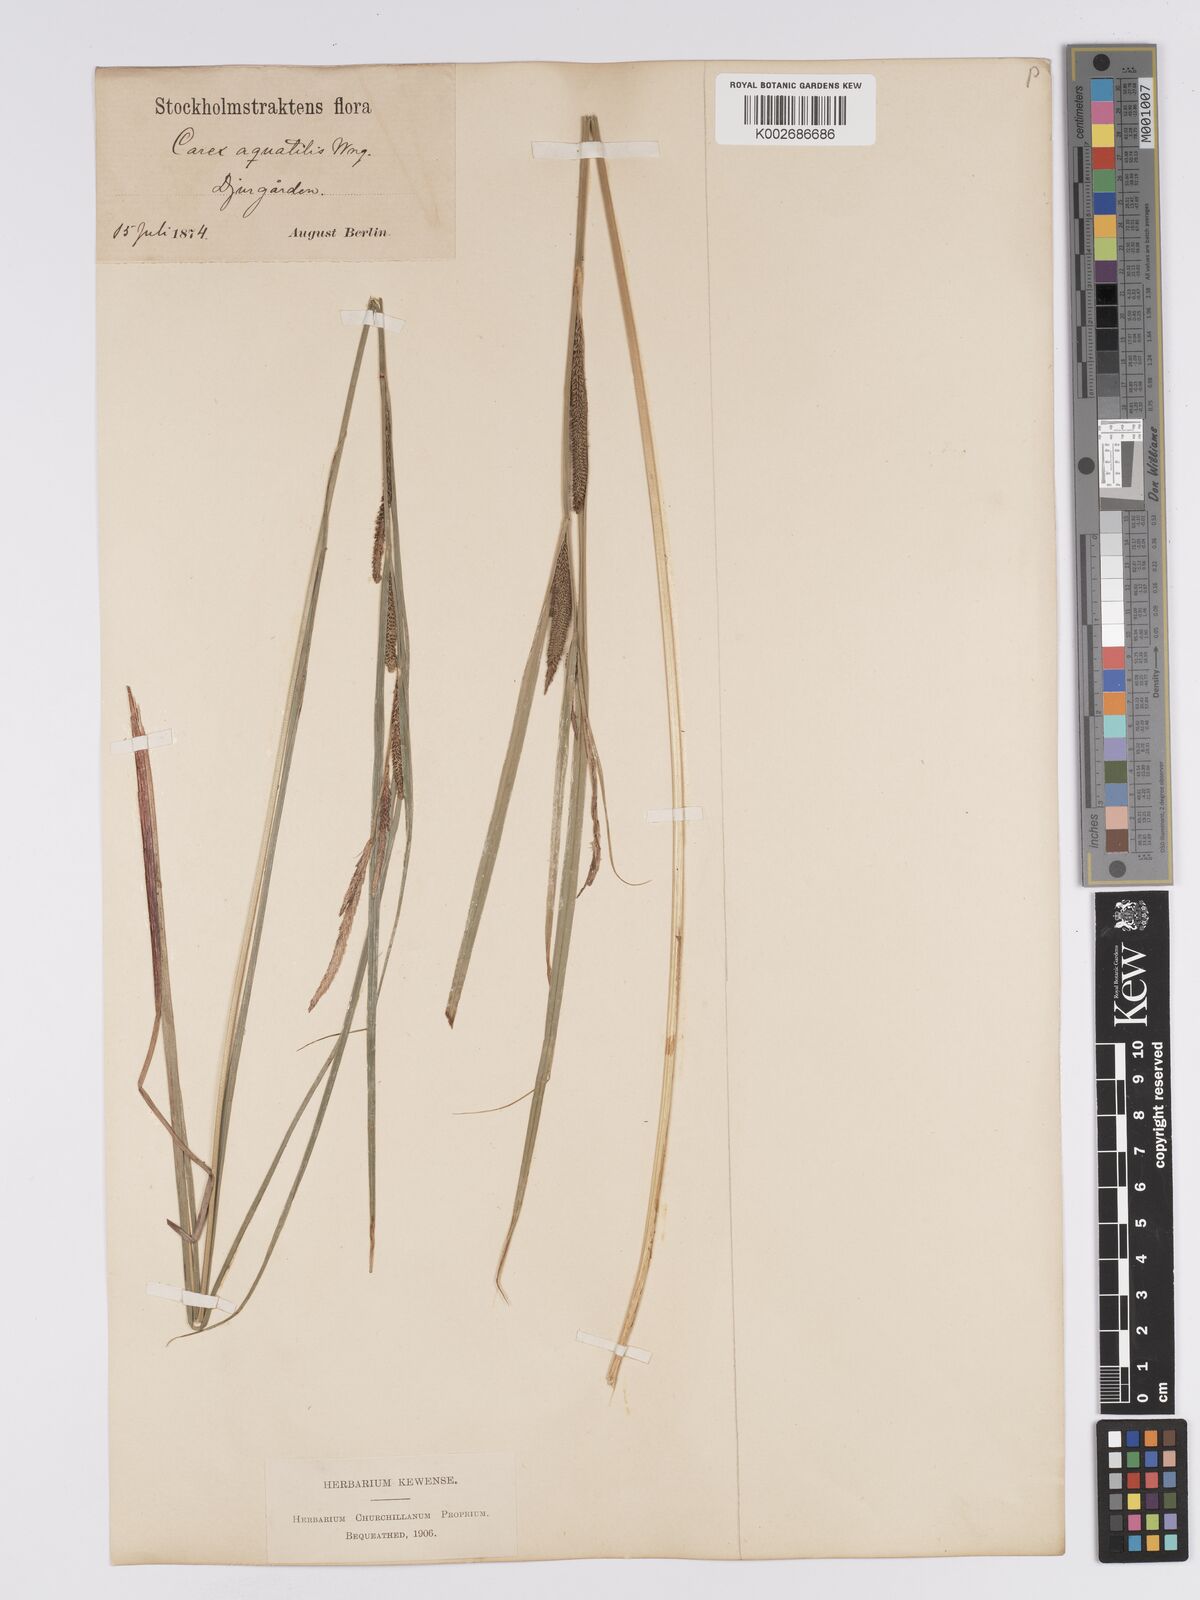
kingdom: Plantae
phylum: Tracheophyta
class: Liliopsida
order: Poales
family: Cyperaceae
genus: Carex
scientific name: Carex aquatilis
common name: Water sedge
